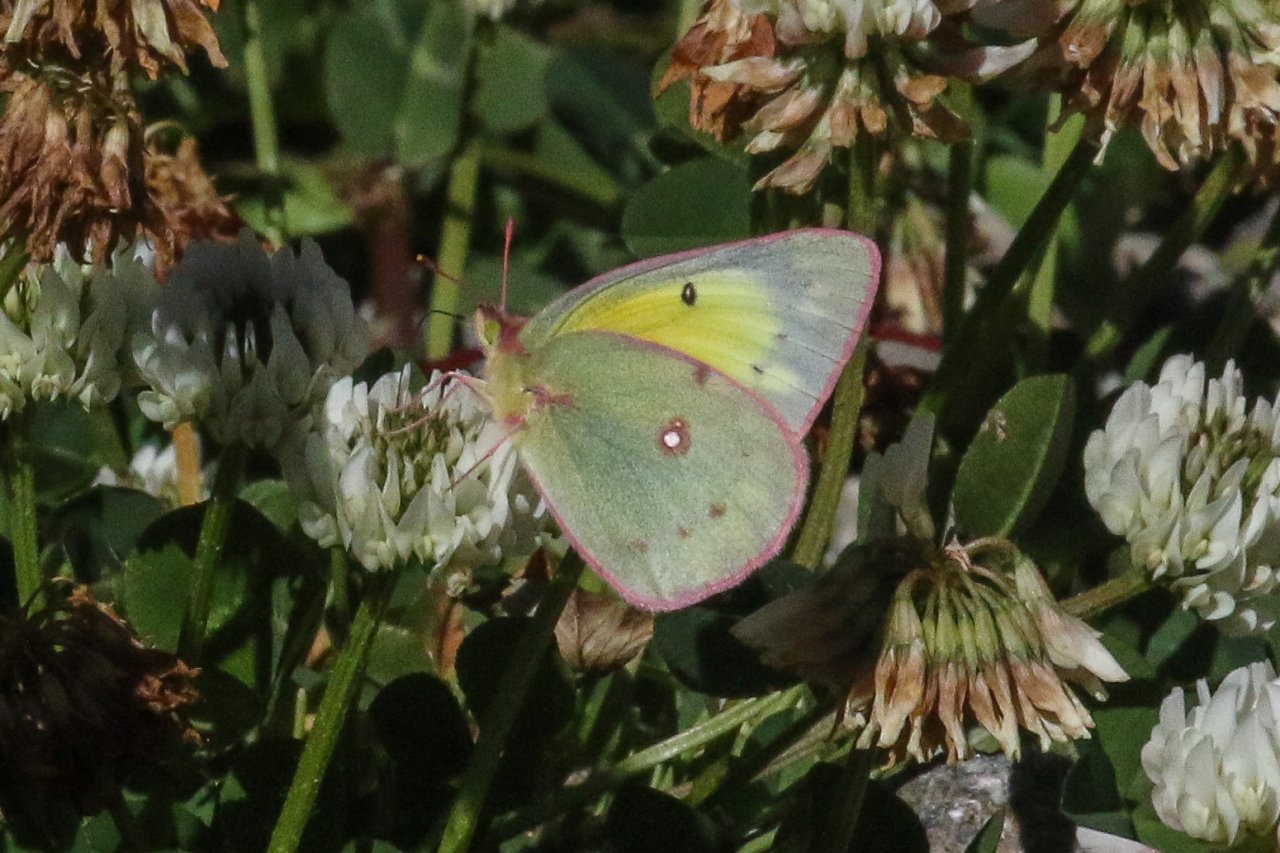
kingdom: Animalia
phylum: Arthropoda
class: Insecta
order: Lepidoptera
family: Pieridae
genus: Colias
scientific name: Colias philodice
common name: Clouded Sulphur
